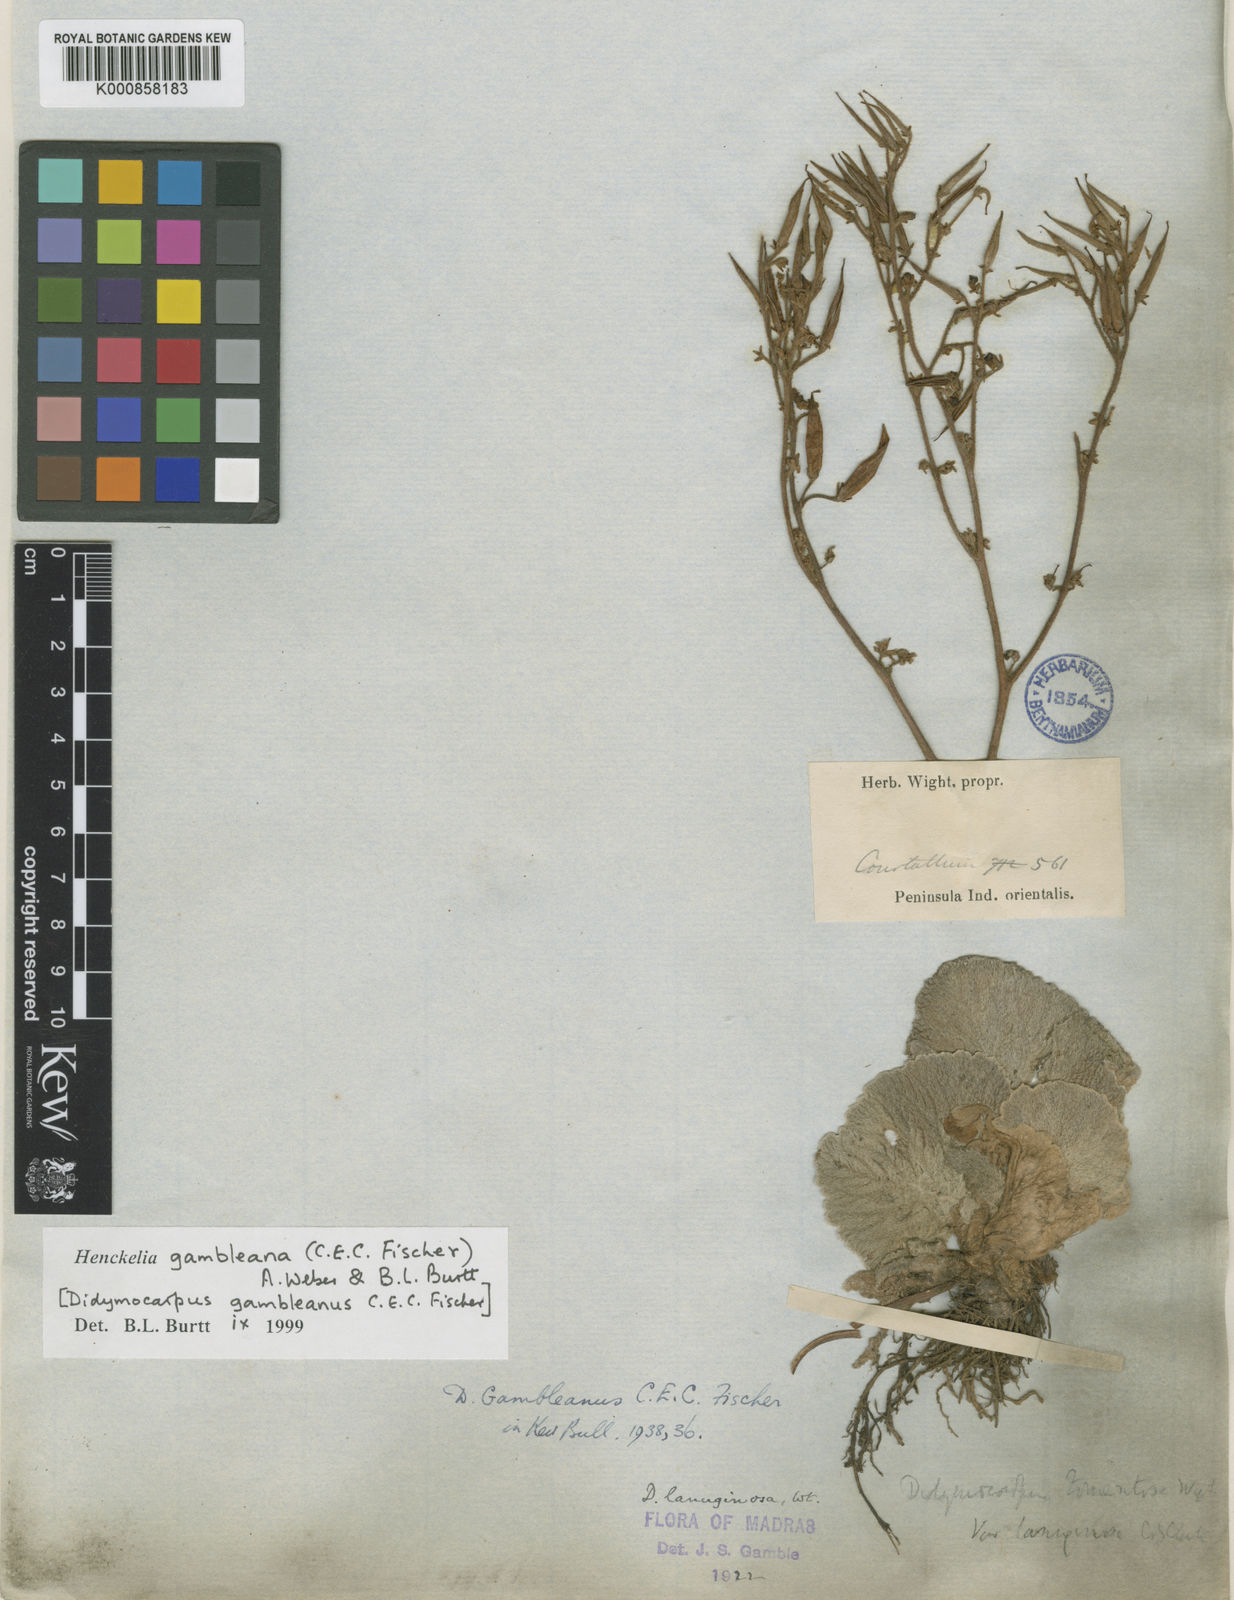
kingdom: Plantae
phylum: Tracheophyta
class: Magnoliopsida
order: Lamiales
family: Gesneriaceae
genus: Henckelia
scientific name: Henckelia gambleana
